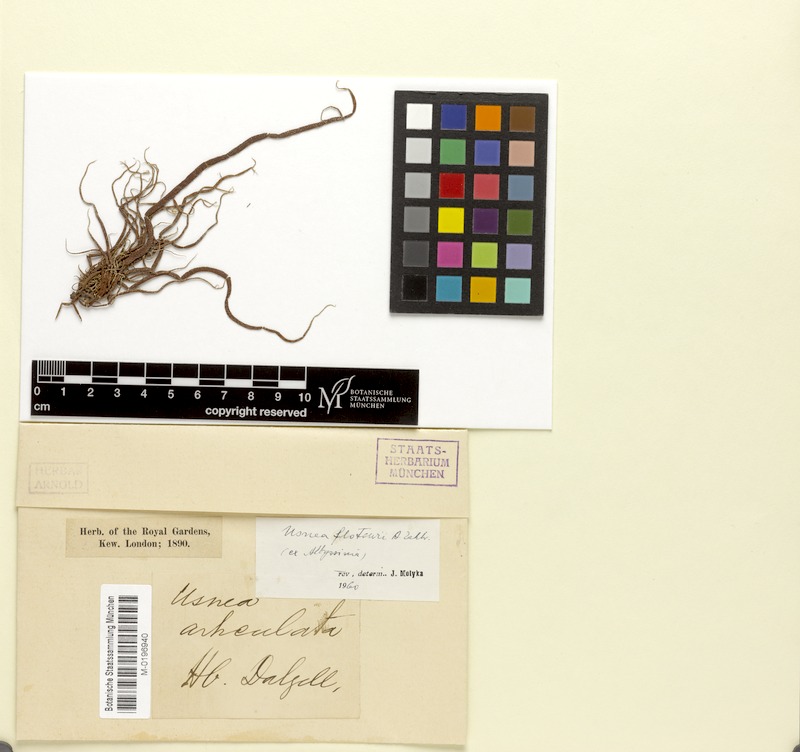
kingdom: Fungi
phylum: Ascomycota
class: Lecanoromycetes
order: Lecanorales
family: Parmeliaceae
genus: Usnea
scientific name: Usnea
